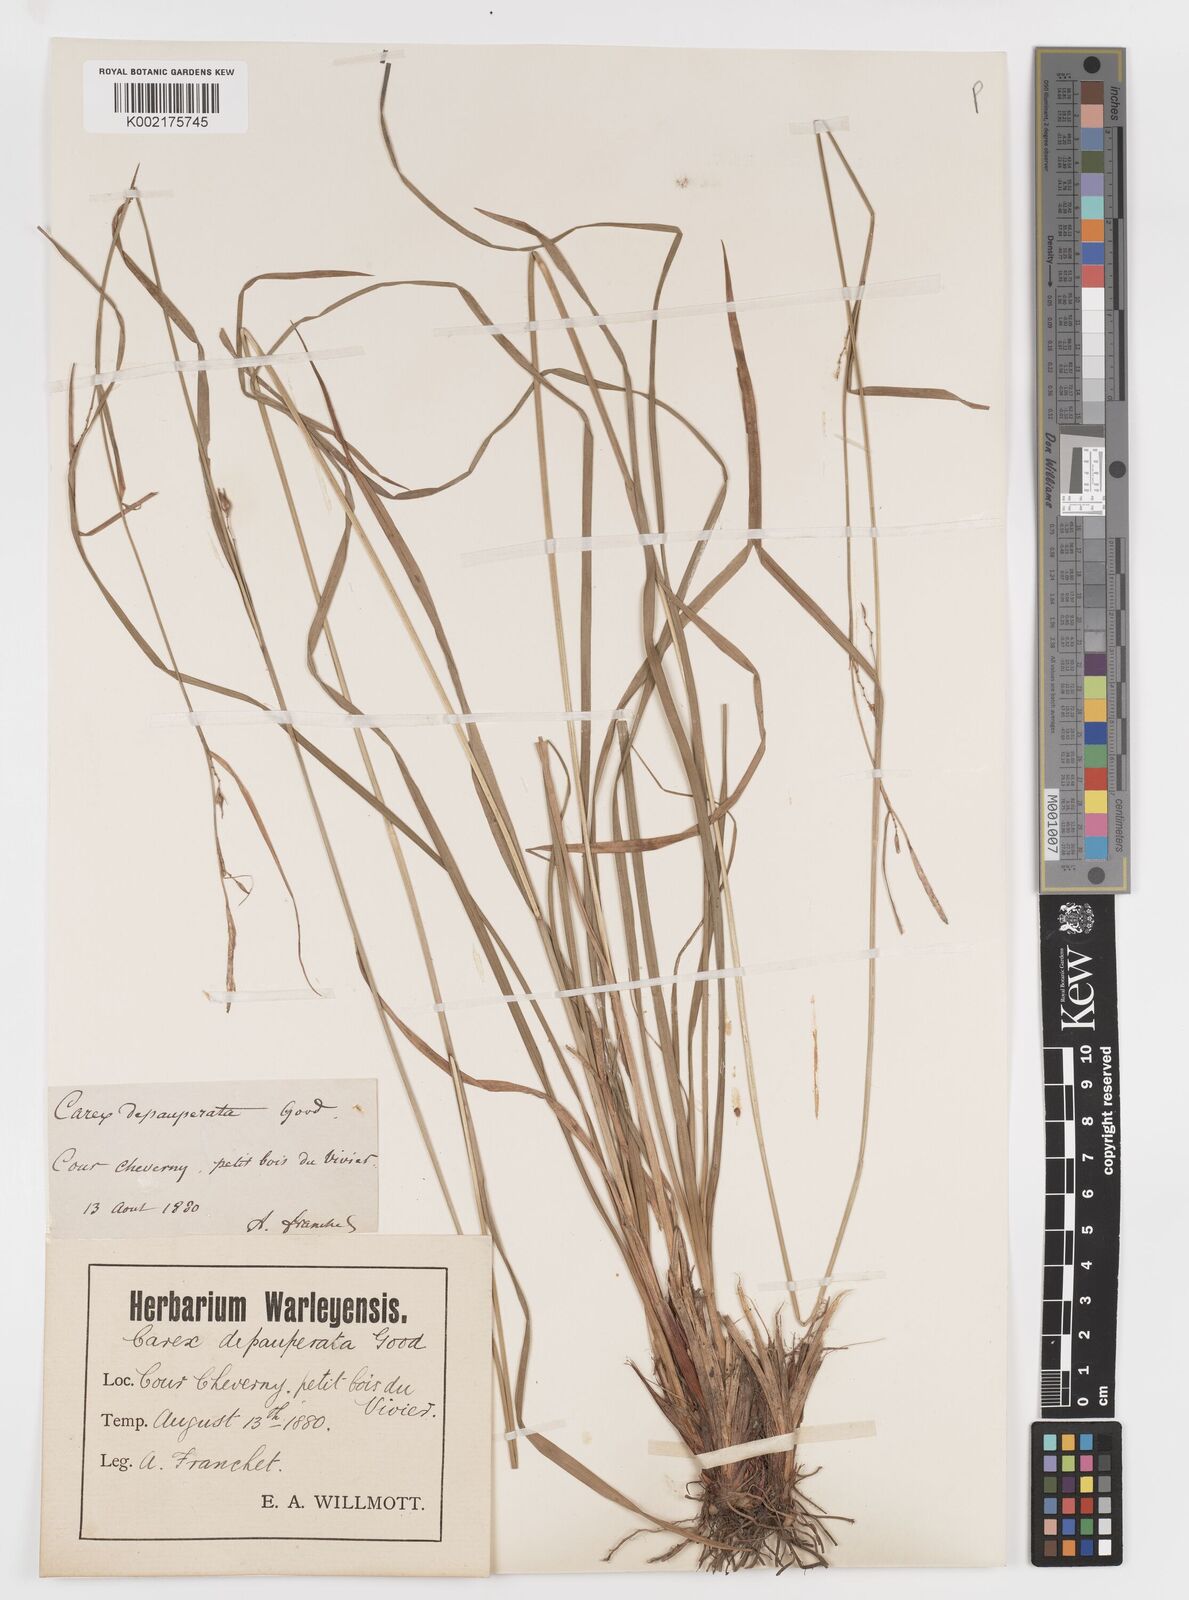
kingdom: Plantae
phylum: Tracheophyta
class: Liliopsida
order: Poales
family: Cyperaceae
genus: Carex
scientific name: Carex
